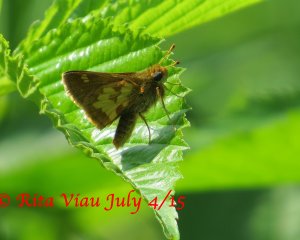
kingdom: Animalia
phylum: Arthropoda
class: Insecta
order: Lepidoptera
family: Hesperiidae
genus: Polites
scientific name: Polites coras
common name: Peck's Skipper
